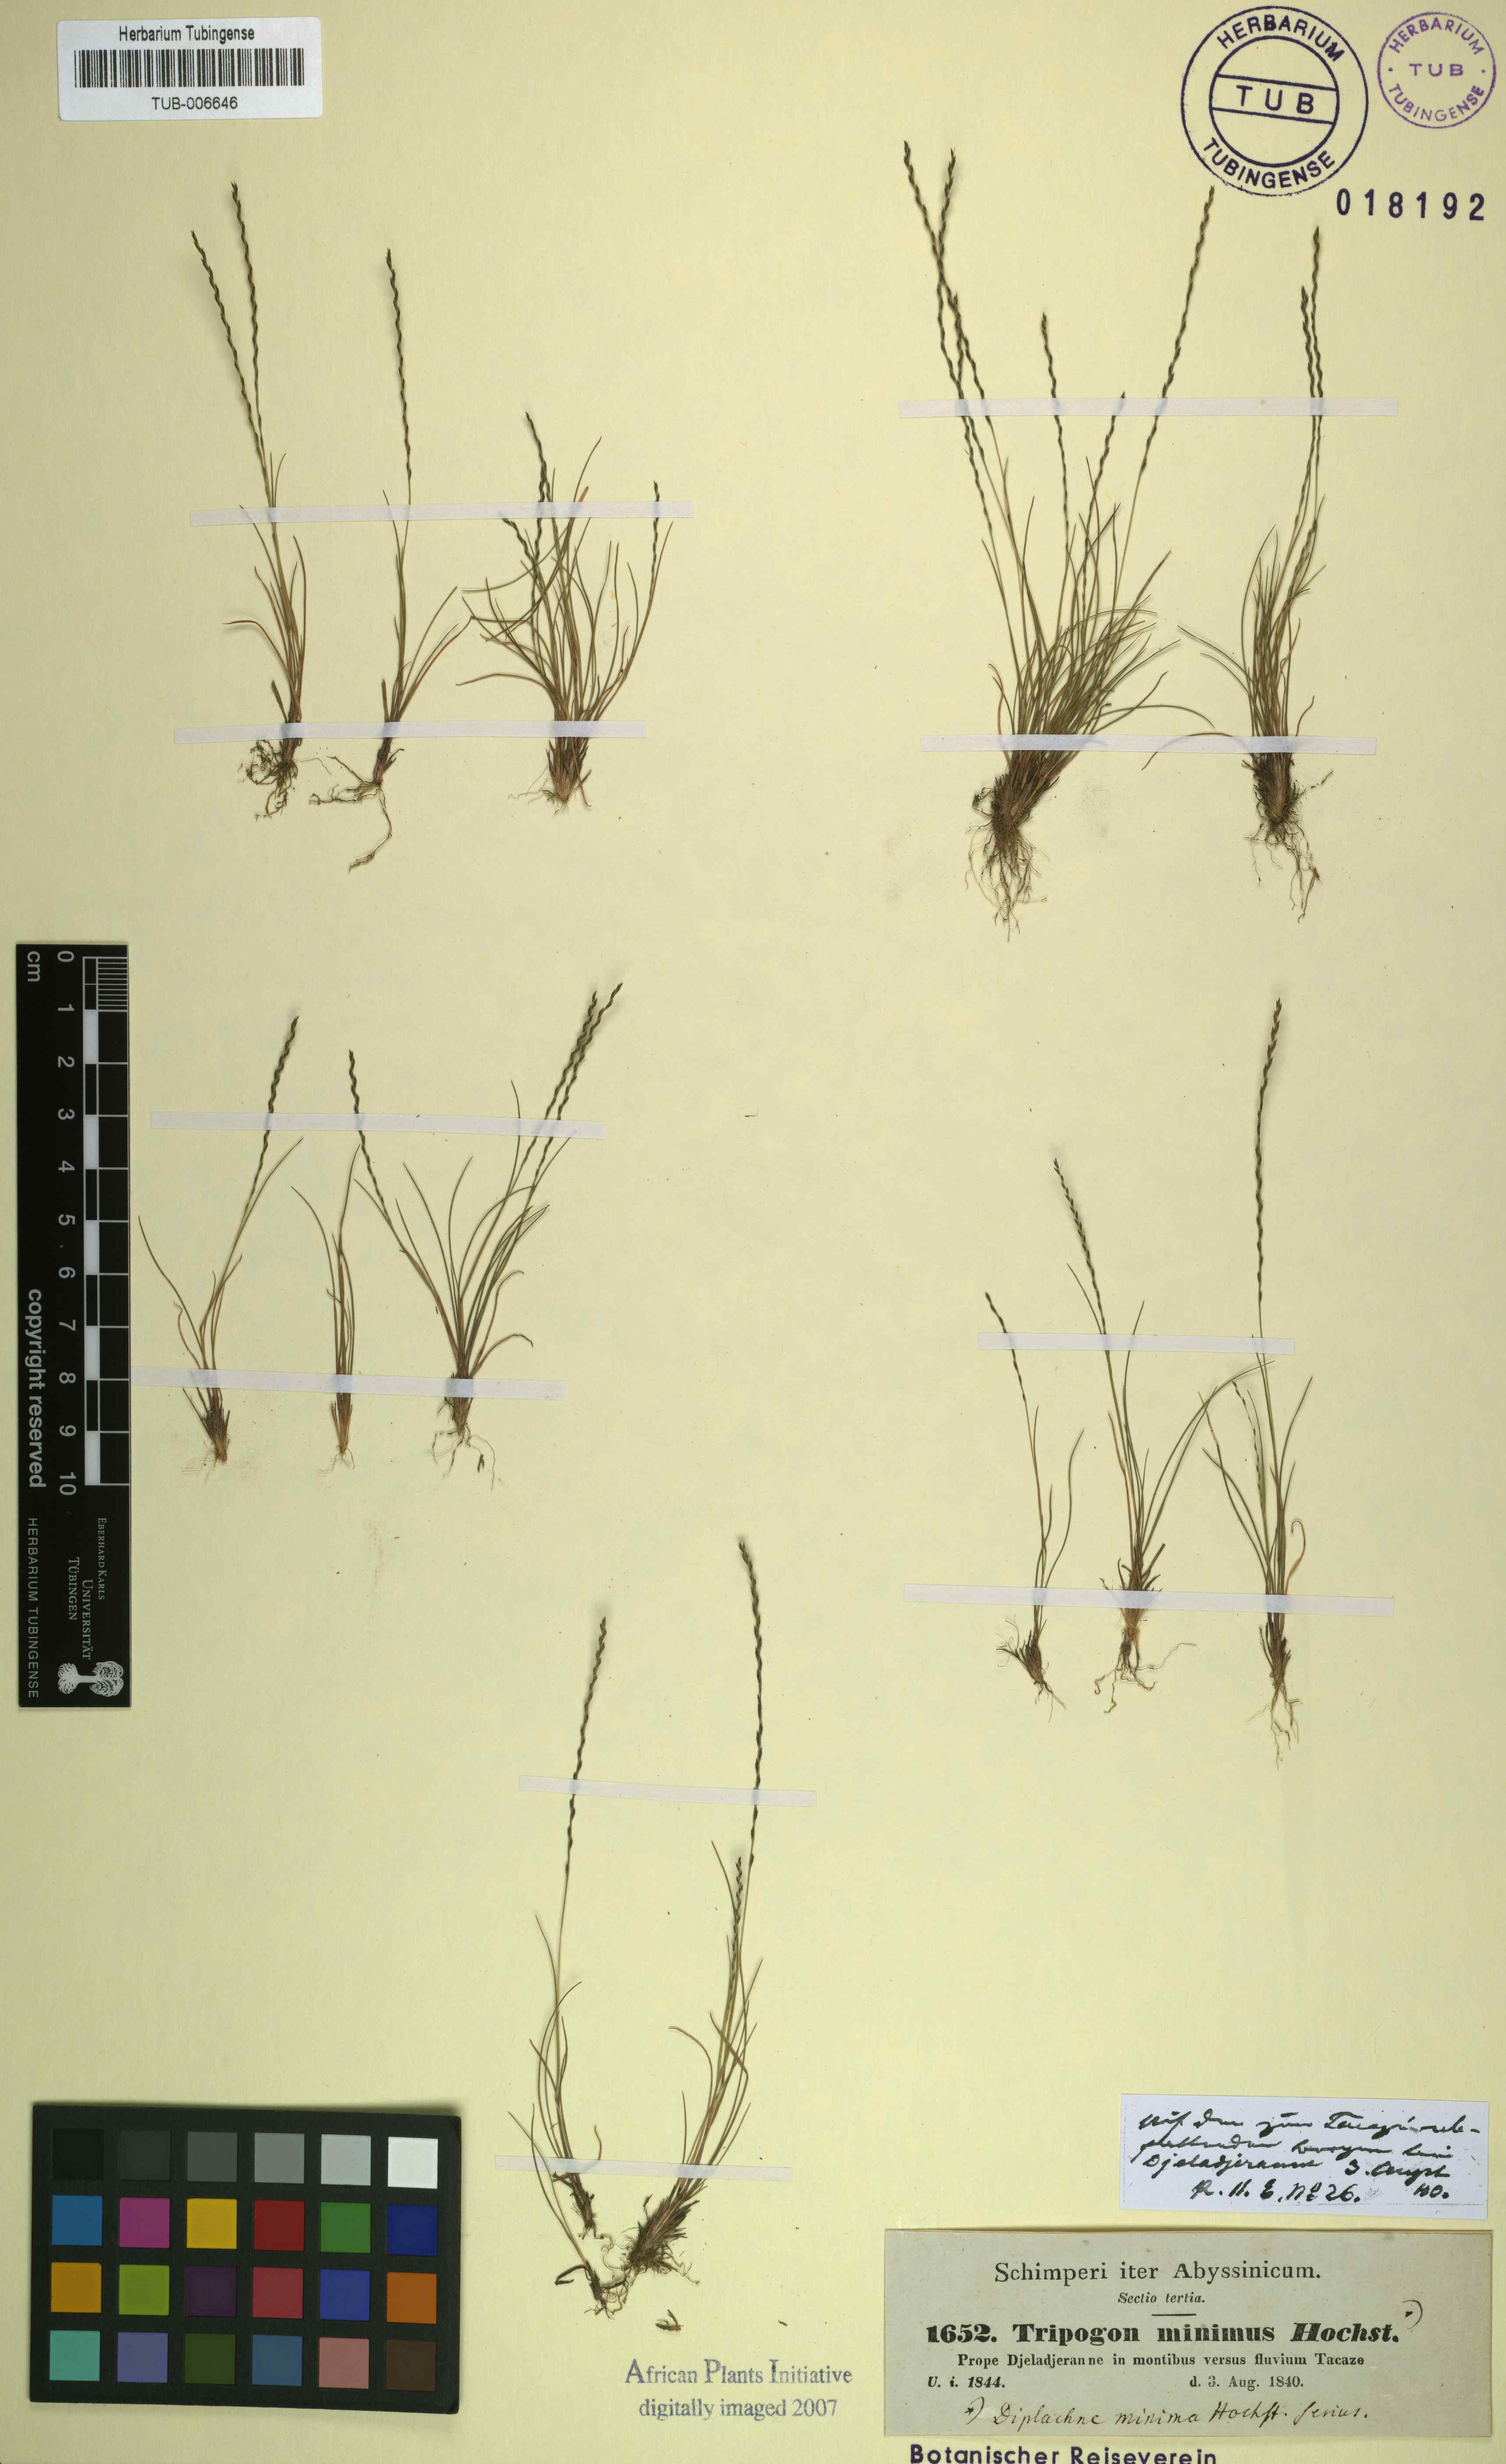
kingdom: Plantae
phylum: Tracheophyta
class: Liliopsida
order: Poales
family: Poaceae
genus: Tripogon
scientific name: Tripogon leptophyllus
